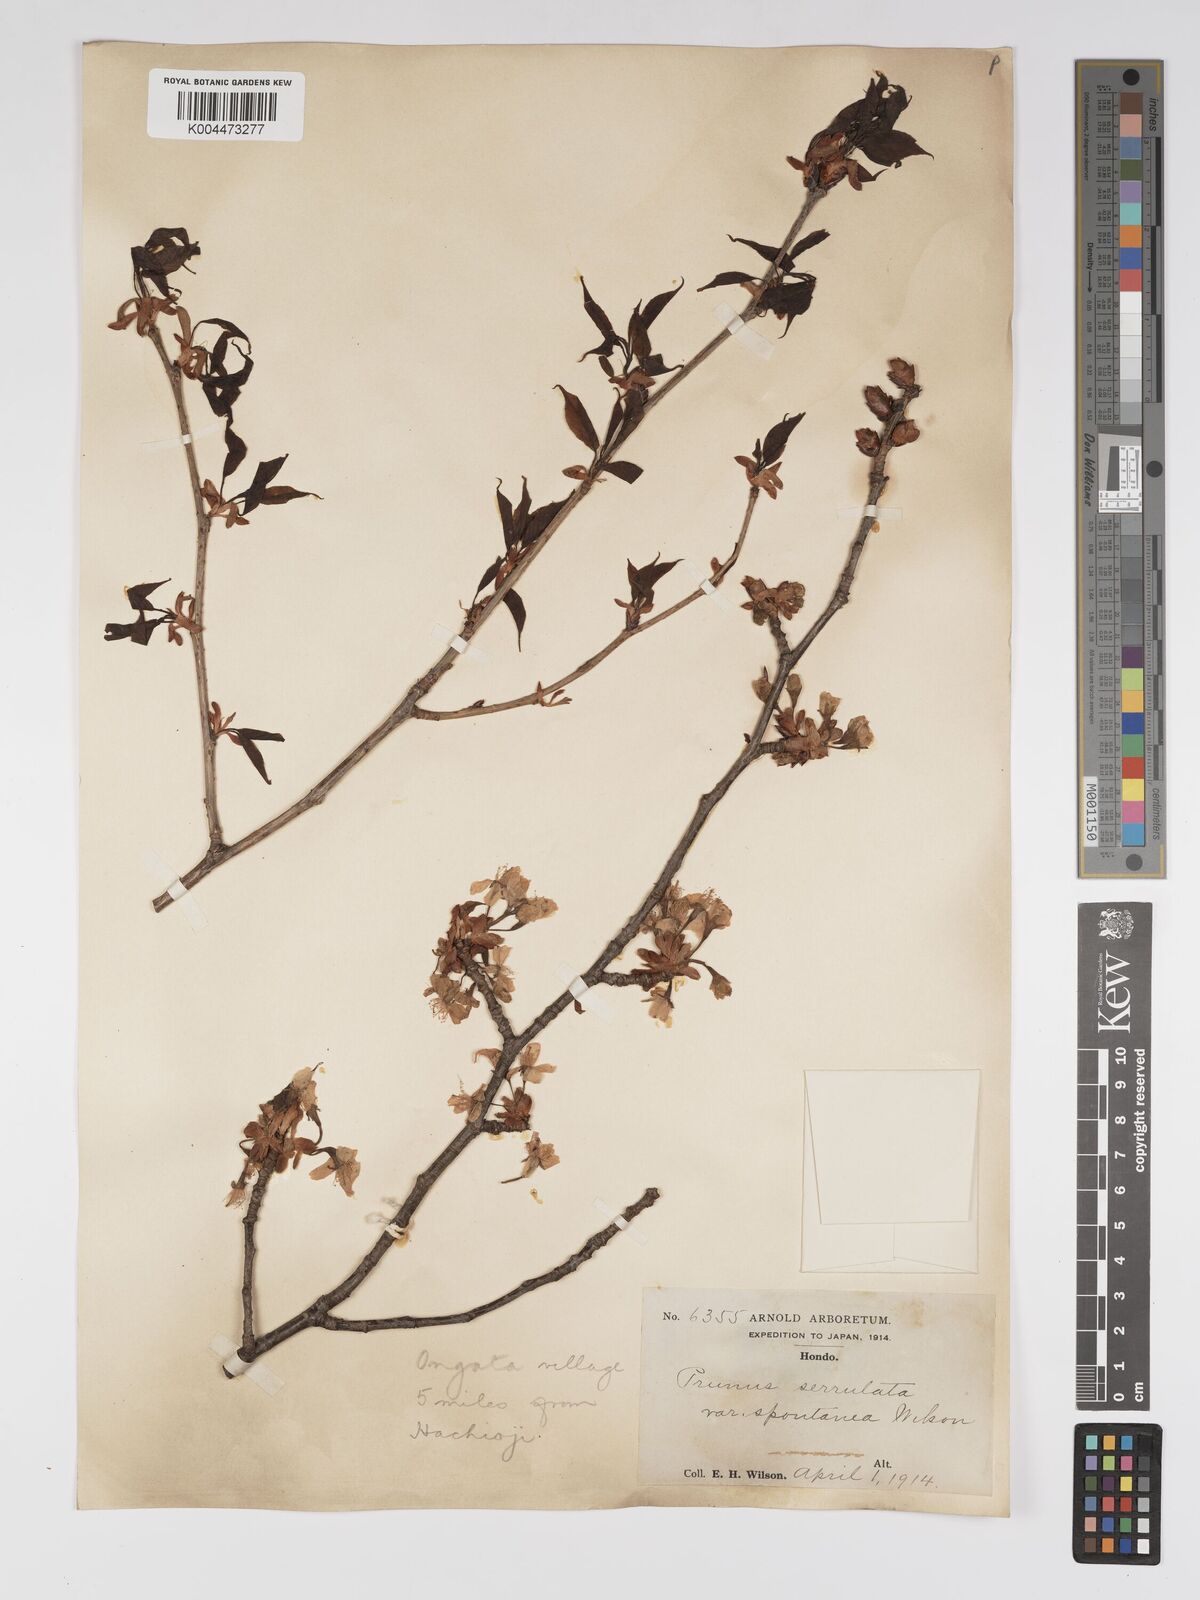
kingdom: Plantae
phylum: Tracheophyta
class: Magnoliopsida
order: Rosales
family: Rosaceae
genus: Prunus
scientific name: Prunus serrulata
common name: Japanese cherry
